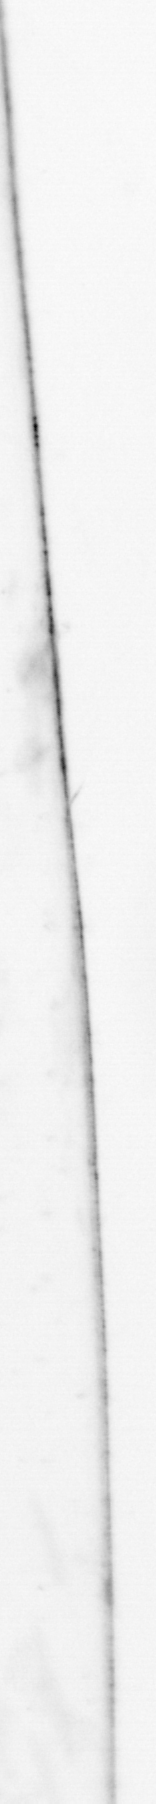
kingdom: Animalia
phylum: Chaetognatha
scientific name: Chaetognatha
